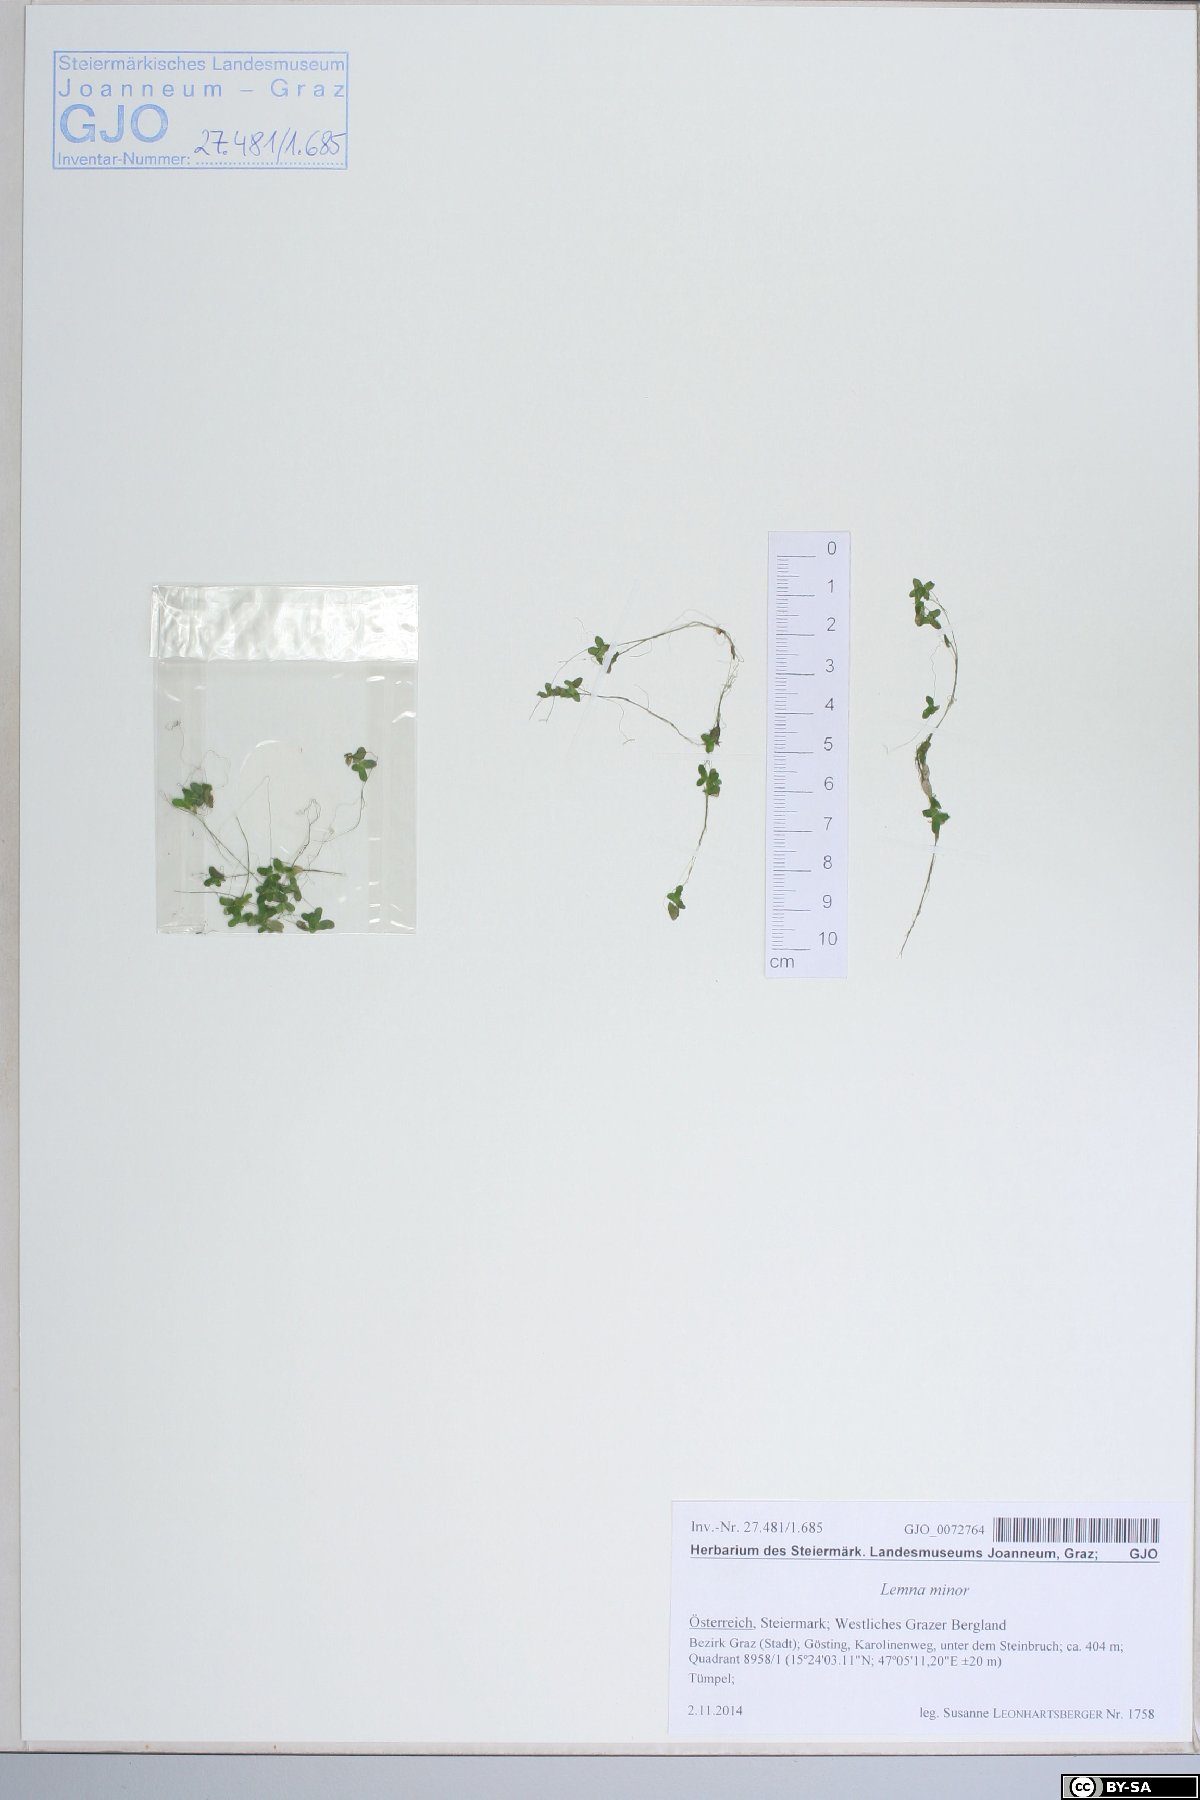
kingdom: Plantae
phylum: Tracheophyta
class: Liliopsida
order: Alismatales
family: Araceae
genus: Lemna
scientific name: Lemna minor
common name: Common duckweed
